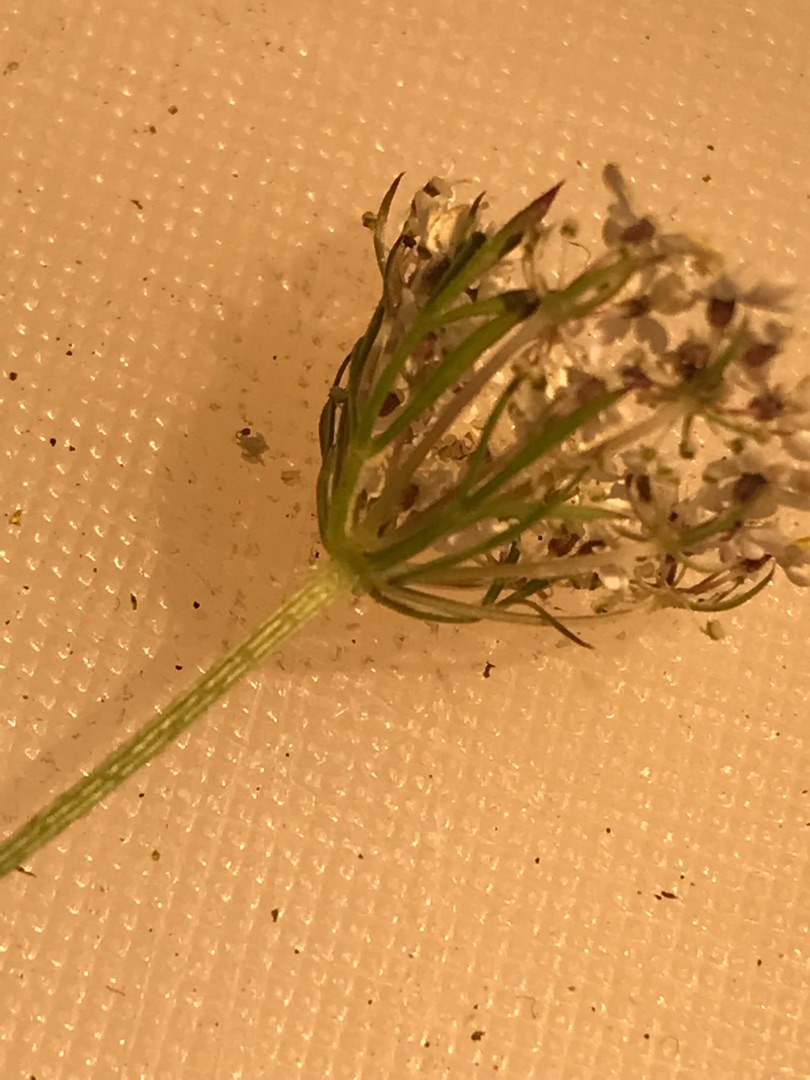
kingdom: Plantae
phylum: Tracheophyta
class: Magnoliopsida
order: Apiales
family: Apiaceae
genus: Daucus
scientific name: Daucus carota
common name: Vild gulerod
